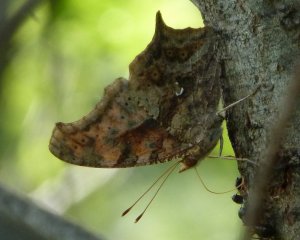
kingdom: Animalia
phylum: Arthropoda
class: Insecta
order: Lepidoptera
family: Nymphalidae
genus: Polygonia
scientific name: Polygonia interrogationis
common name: Question Mark
